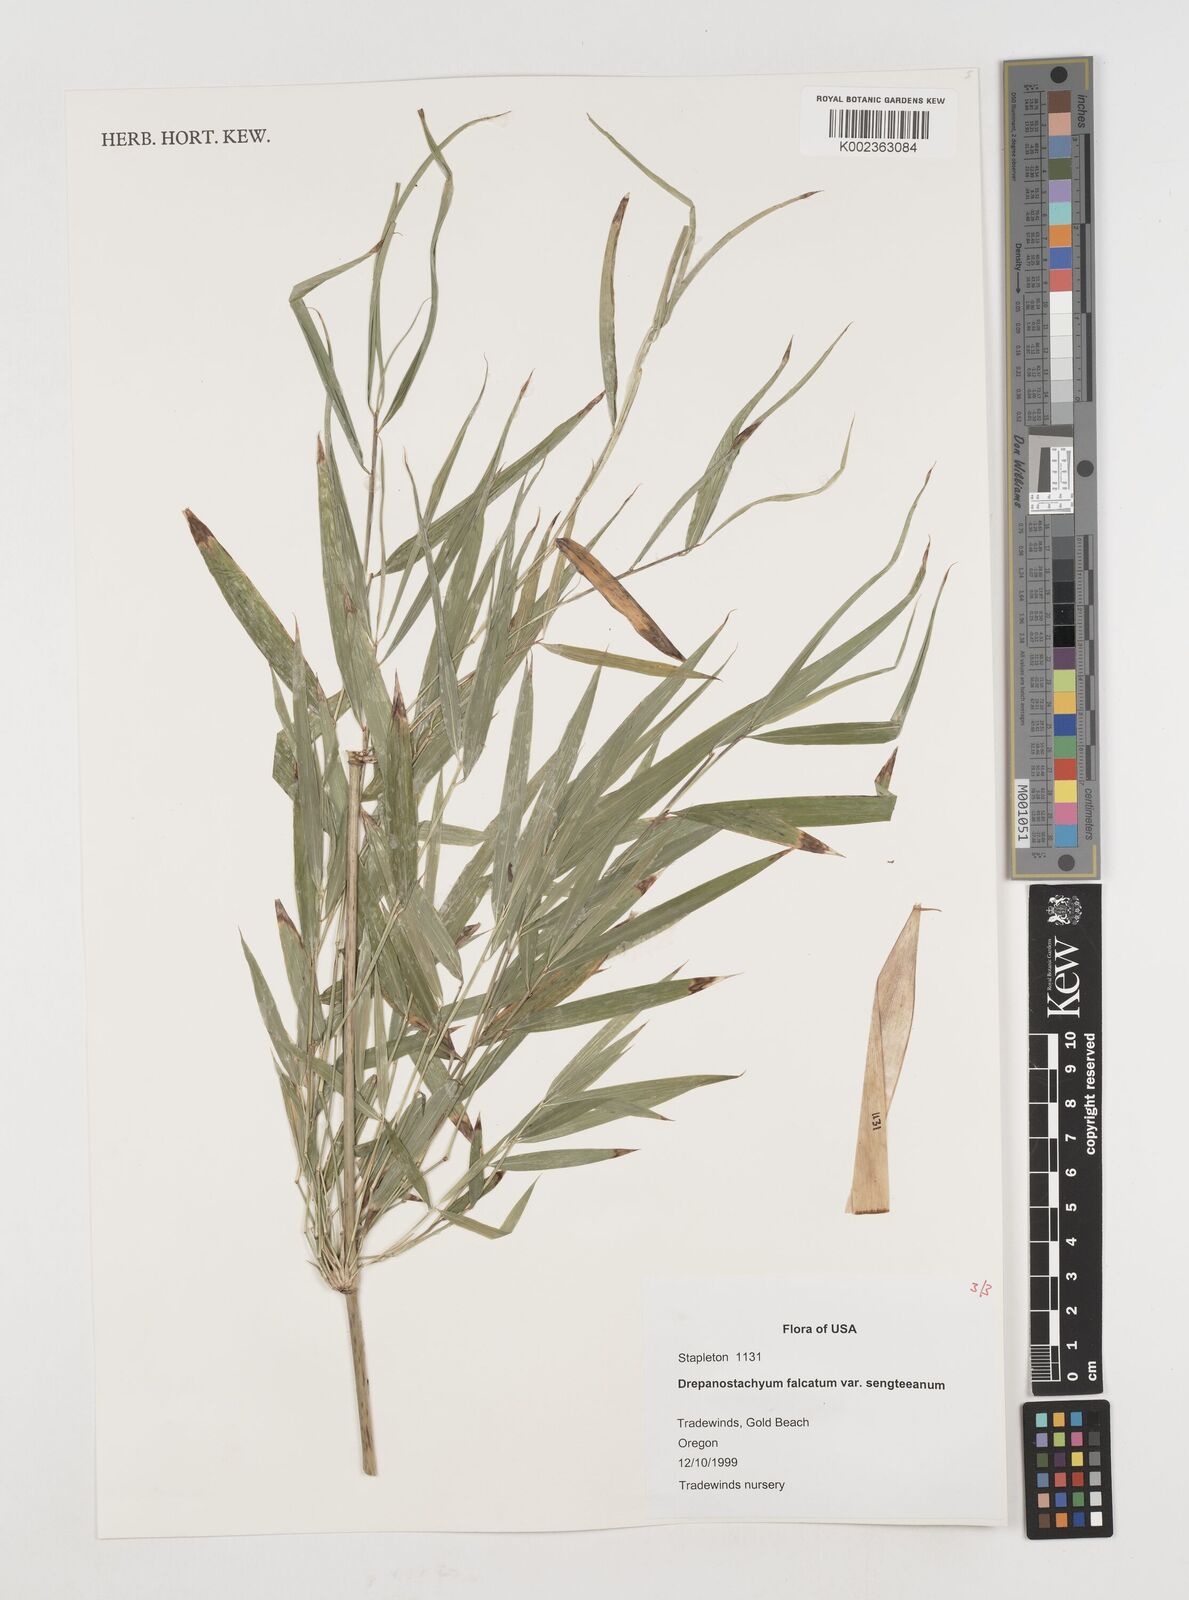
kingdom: Plantae
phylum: Tracheophyta
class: Liliopsida
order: Poales
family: Poaceae
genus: Drepanostachyum
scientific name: Drepanostachyum falcatum
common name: Himalayan bamboo
